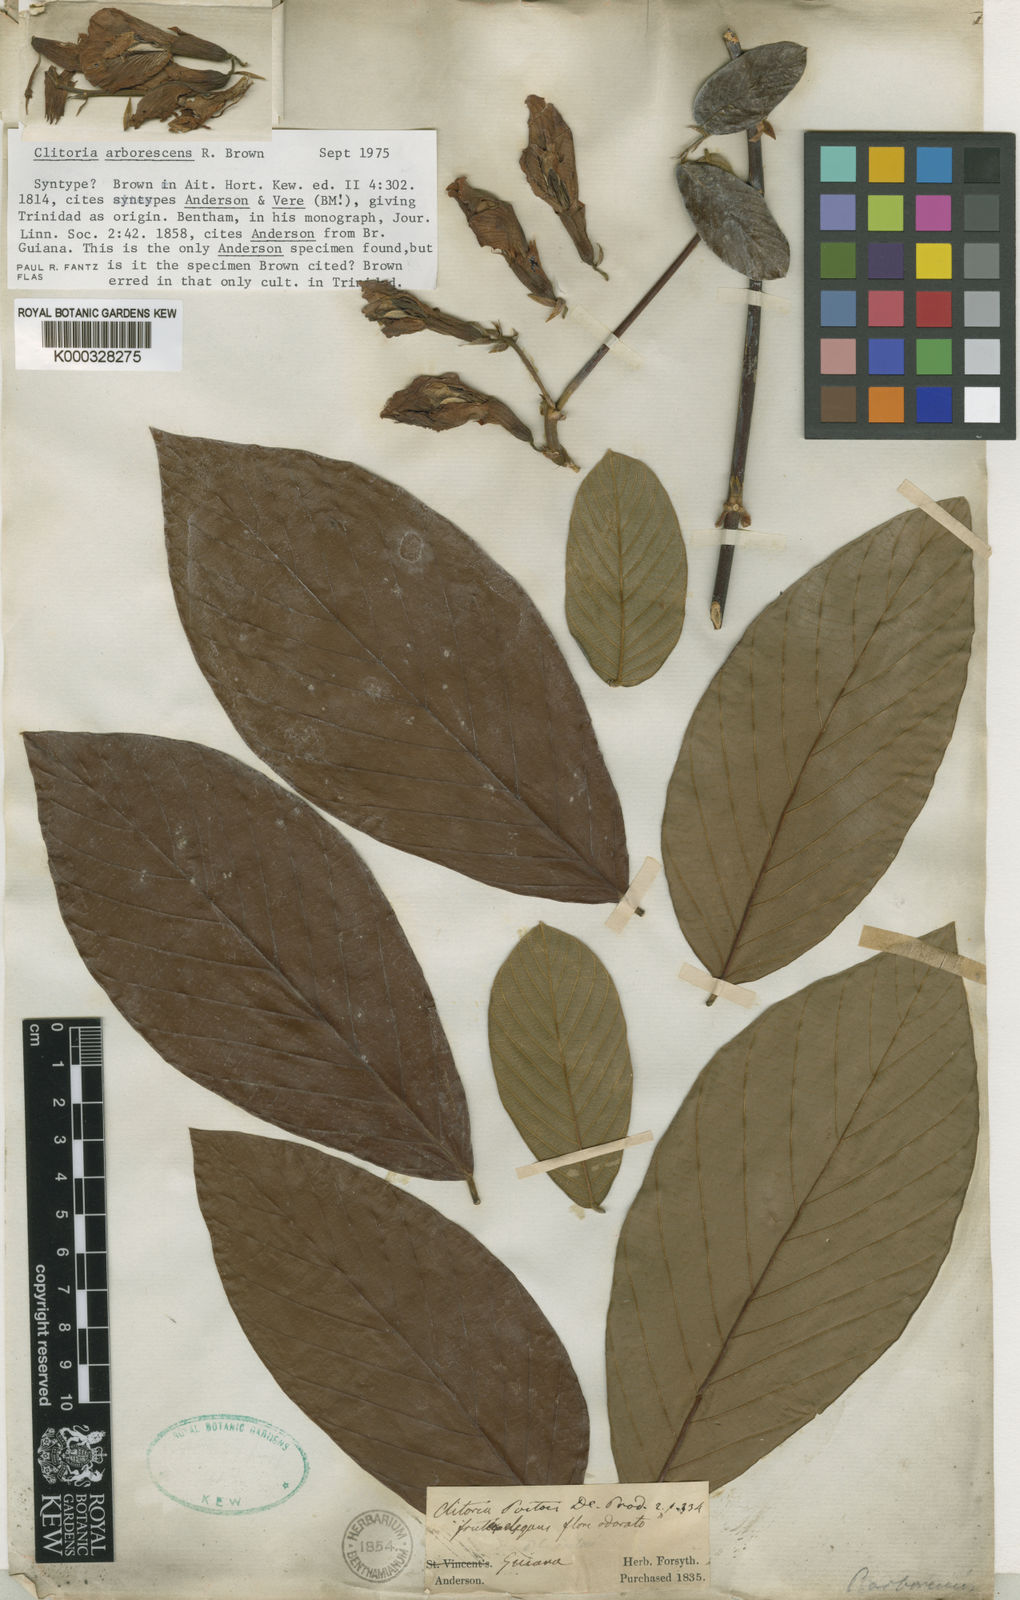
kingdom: Plantae
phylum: Tracheophyta
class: Magnoliopsida
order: Fabales
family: Fabaceae
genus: Clitoria
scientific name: Clitoria arborescens
